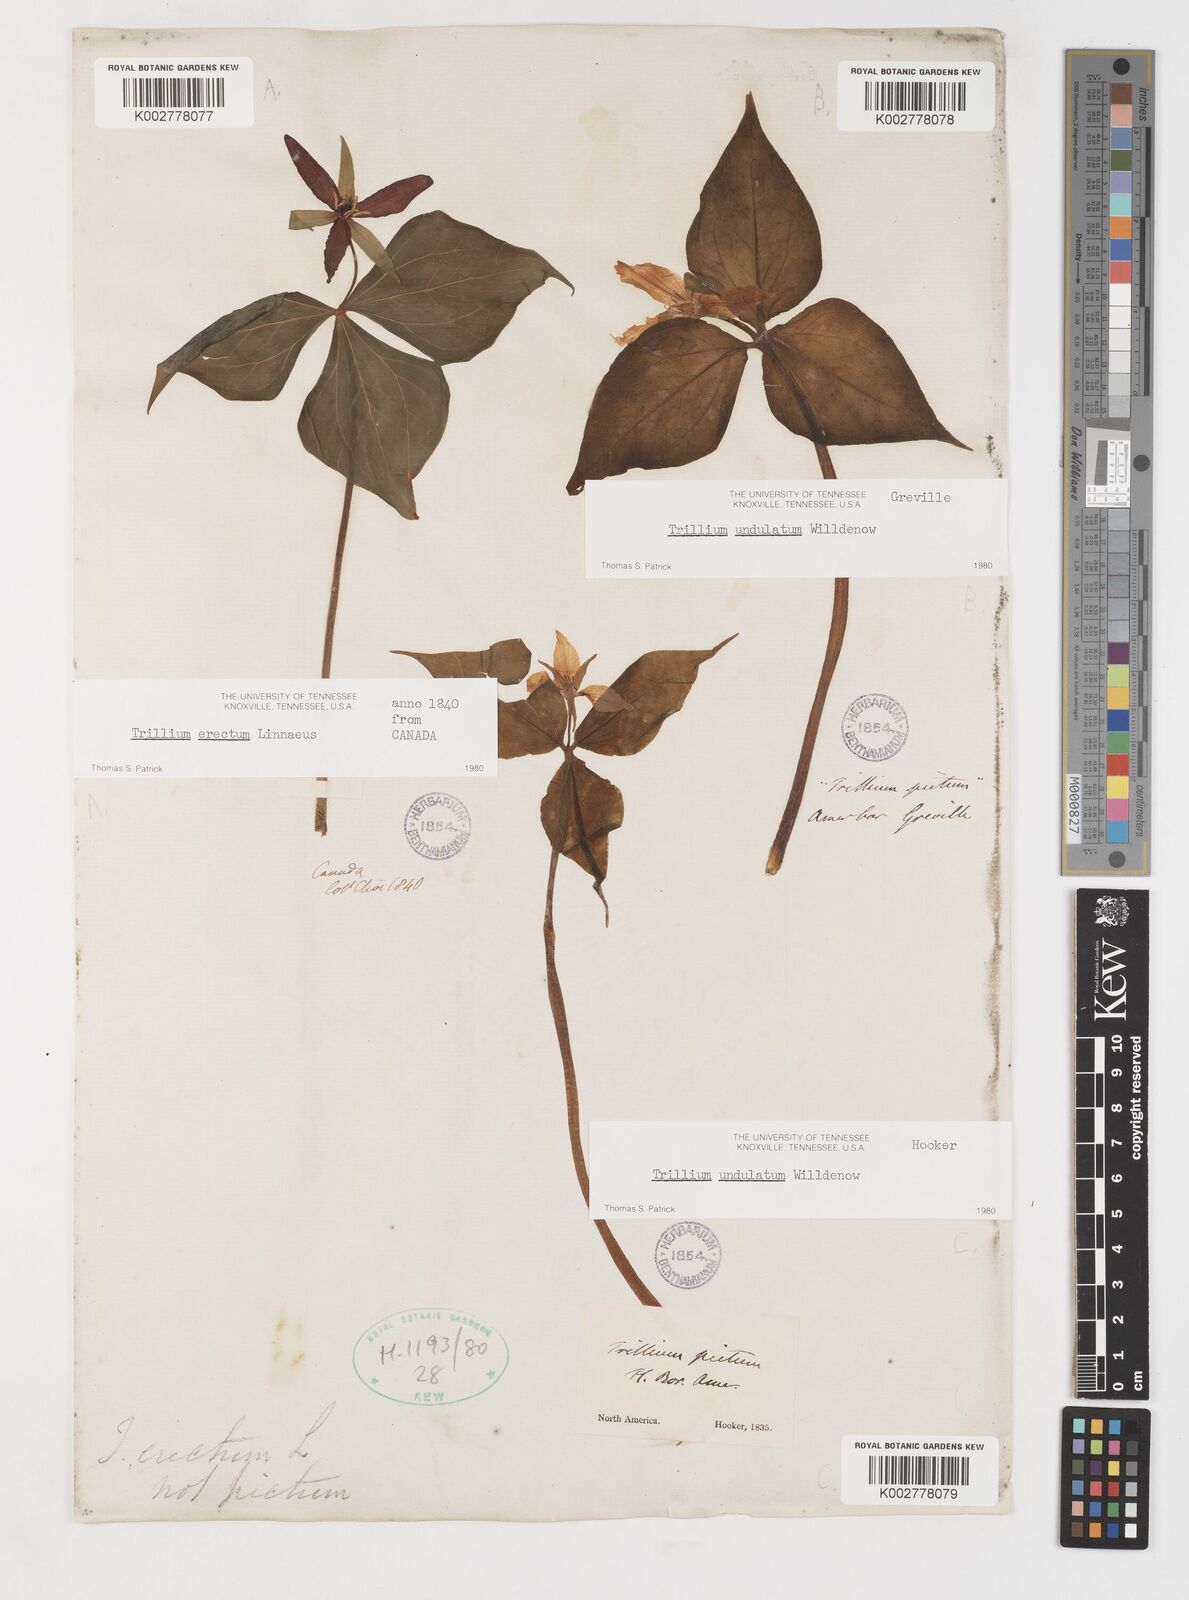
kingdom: Plantae
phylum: Tracheophyta
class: Liliopsida
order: Liliales
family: Melanthiaceae
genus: Trillium
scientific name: Trillium undulatum
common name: Paint trillium
